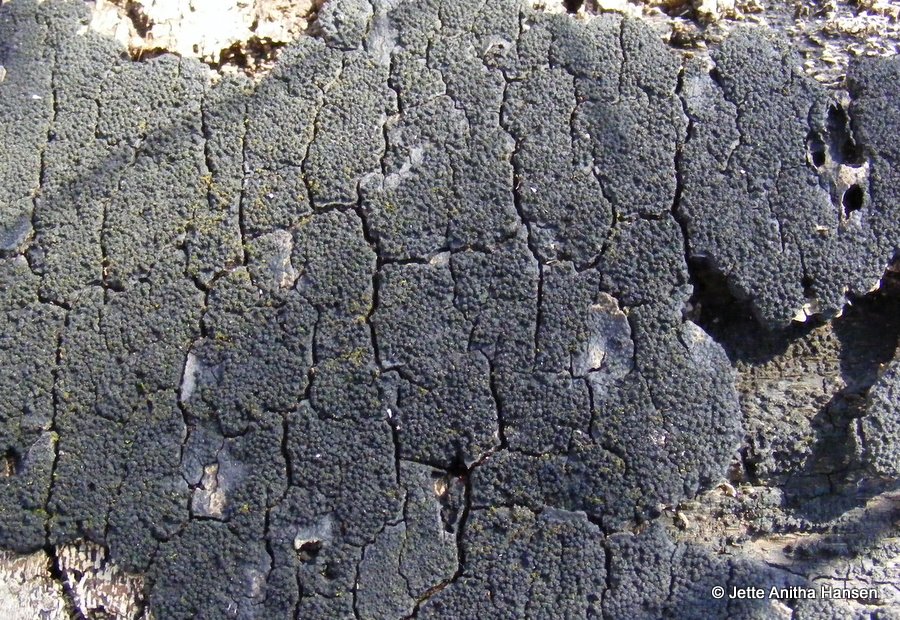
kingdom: Fungi
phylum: Ascomycota
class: Sordariomycetes
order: Xylariales
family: Diatrypaceae
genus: Eutypa
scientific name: Eutypa spinosa
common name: grov kulskorpe
